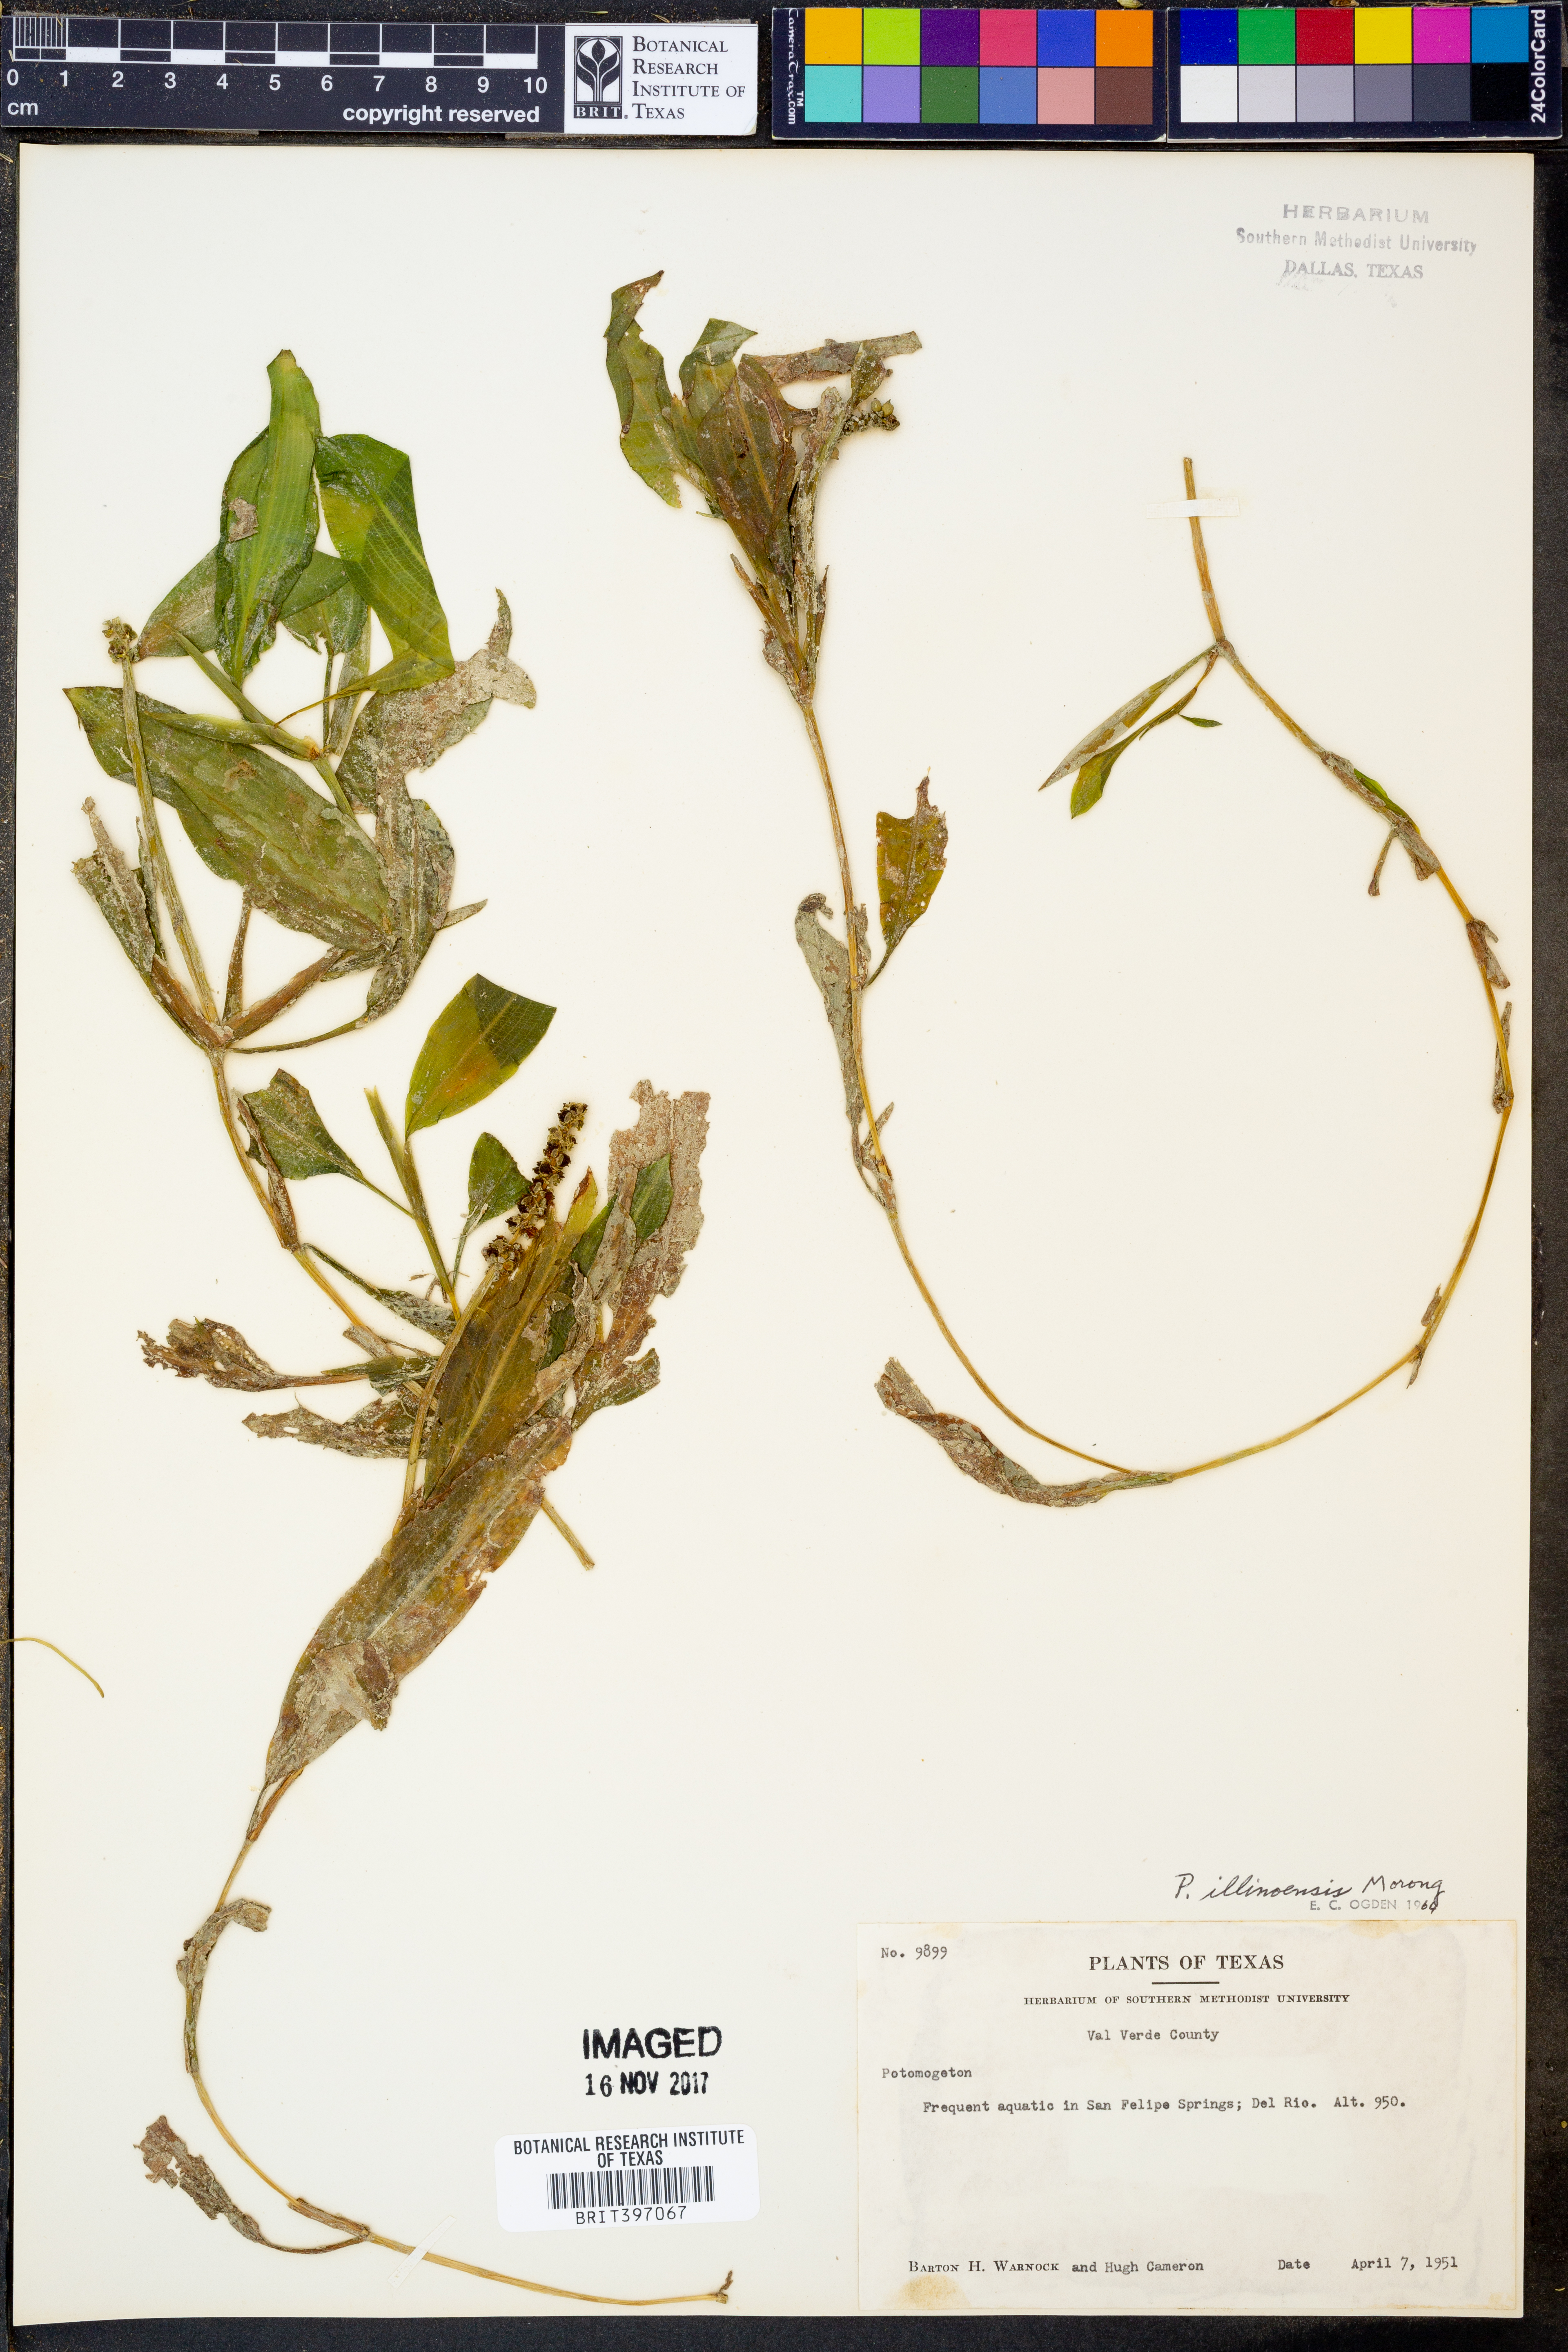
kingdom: Plantae
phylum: Tracheophyta
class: Liliopsida
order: Alismatales
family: Potamogetonaceae
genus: Potamogeton
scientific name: Potamogeton illinoensis
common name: Illinois pondweed
